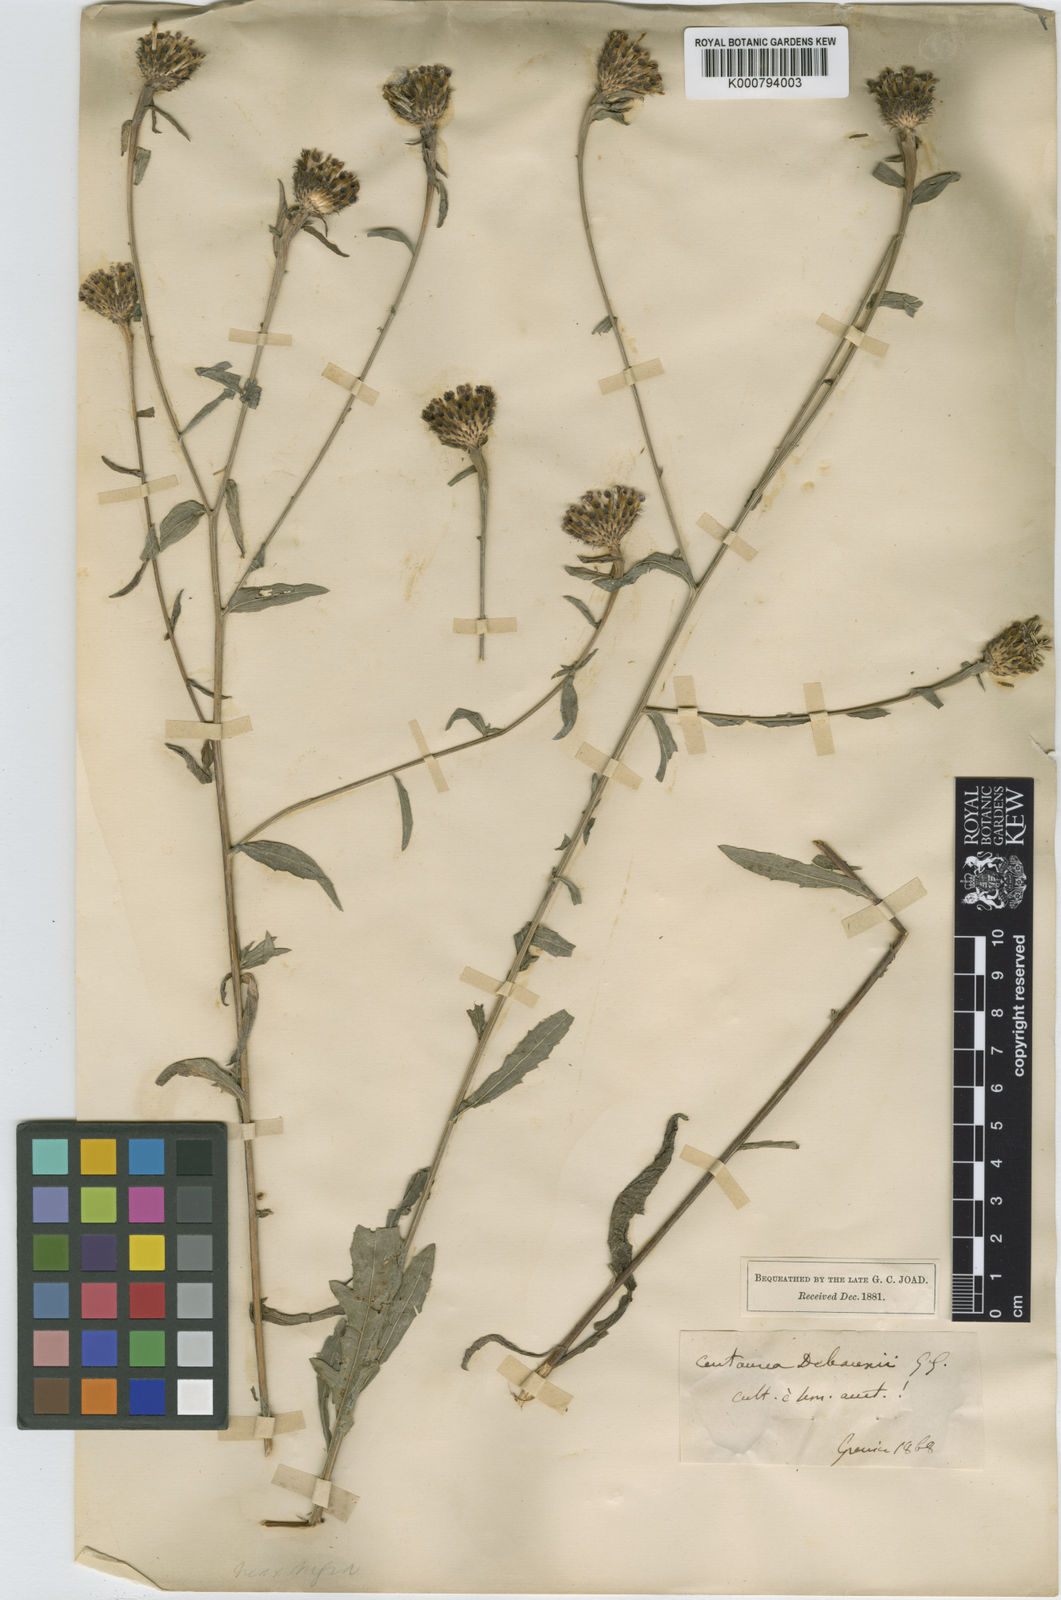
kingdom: Plantae
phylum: Tracheophyta
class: Magnoliopsida
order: Asterales
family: Asteraceae
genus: Centaurea
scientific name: Centaurea debeauxii
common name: Slender knapweed
